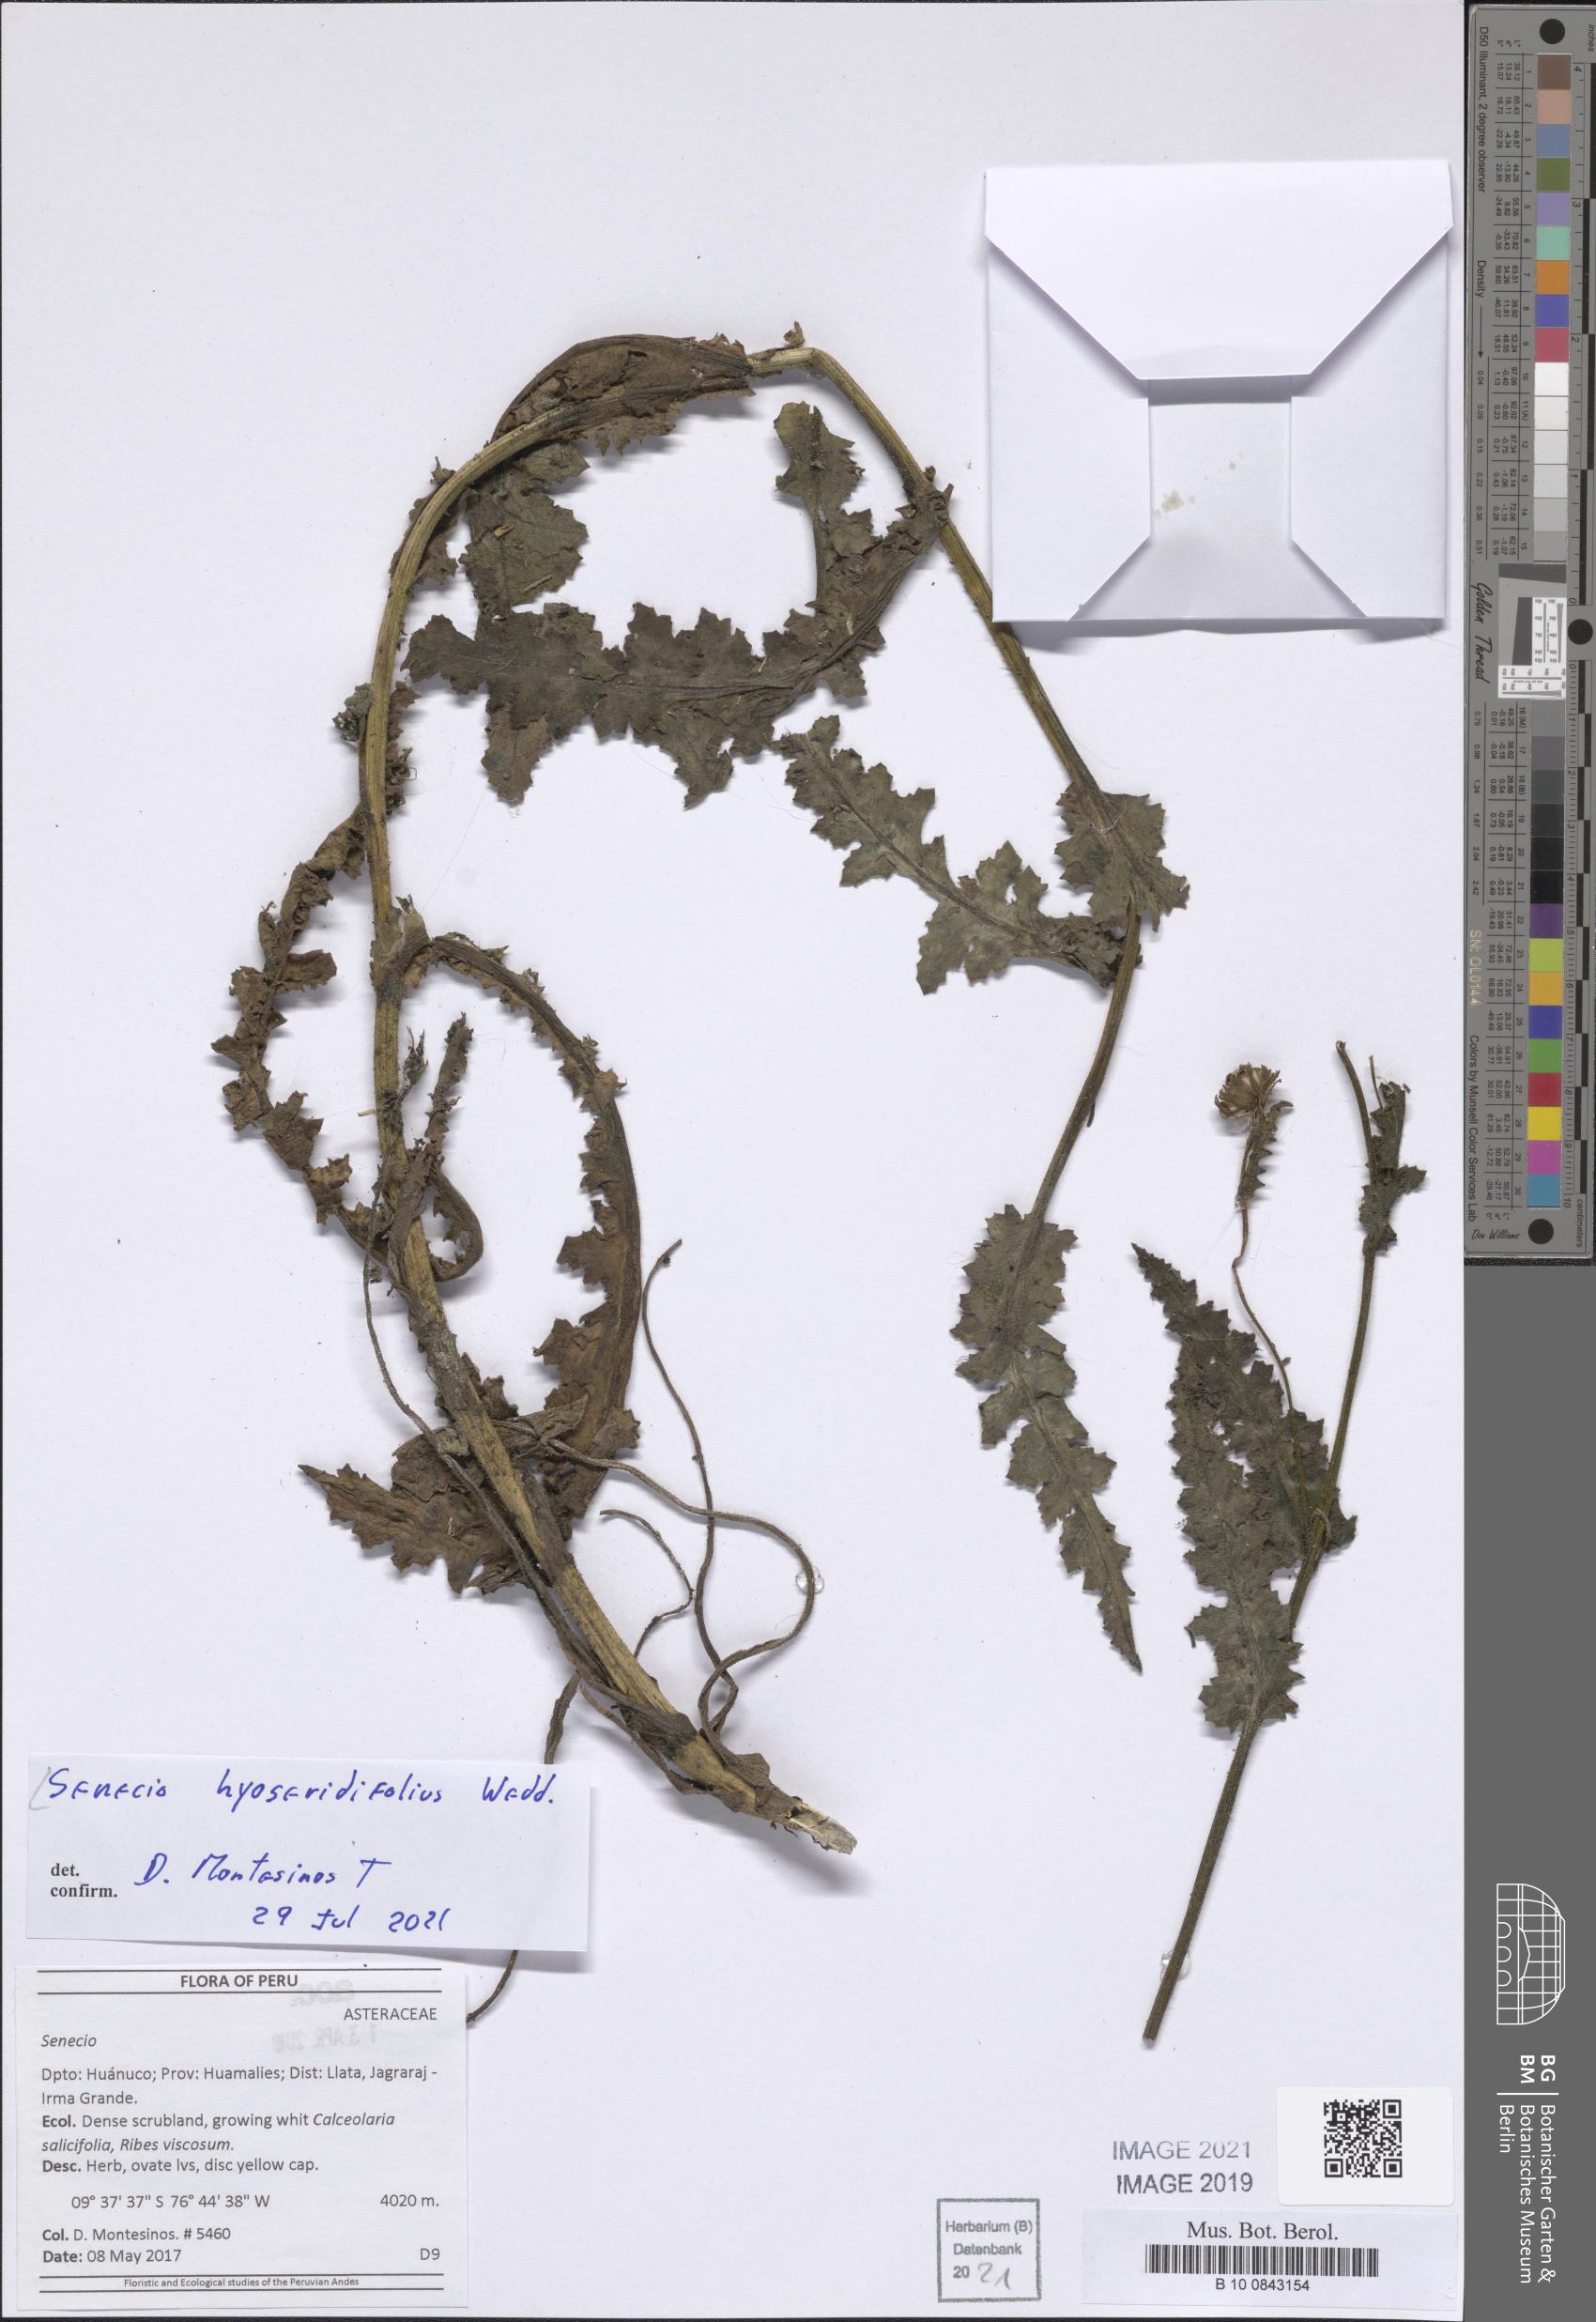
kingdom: Plantae
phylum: Tracheophyta
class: Magnoliopsida
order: Asterales
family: Asteraceae
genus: Senecio
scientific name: Senecio hyoseridifolius
